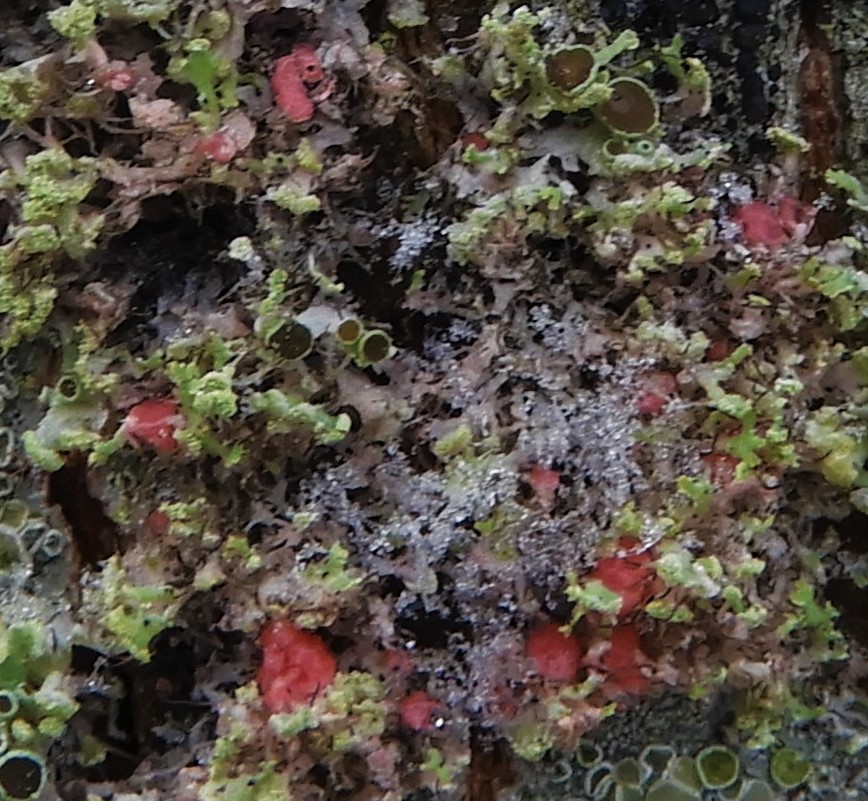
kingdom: Fungi
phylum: Ascomycota
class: Sordariomycetes
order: Hypocreales
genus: Illosporiopsis
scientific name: Illosporiopsis christiansenii
